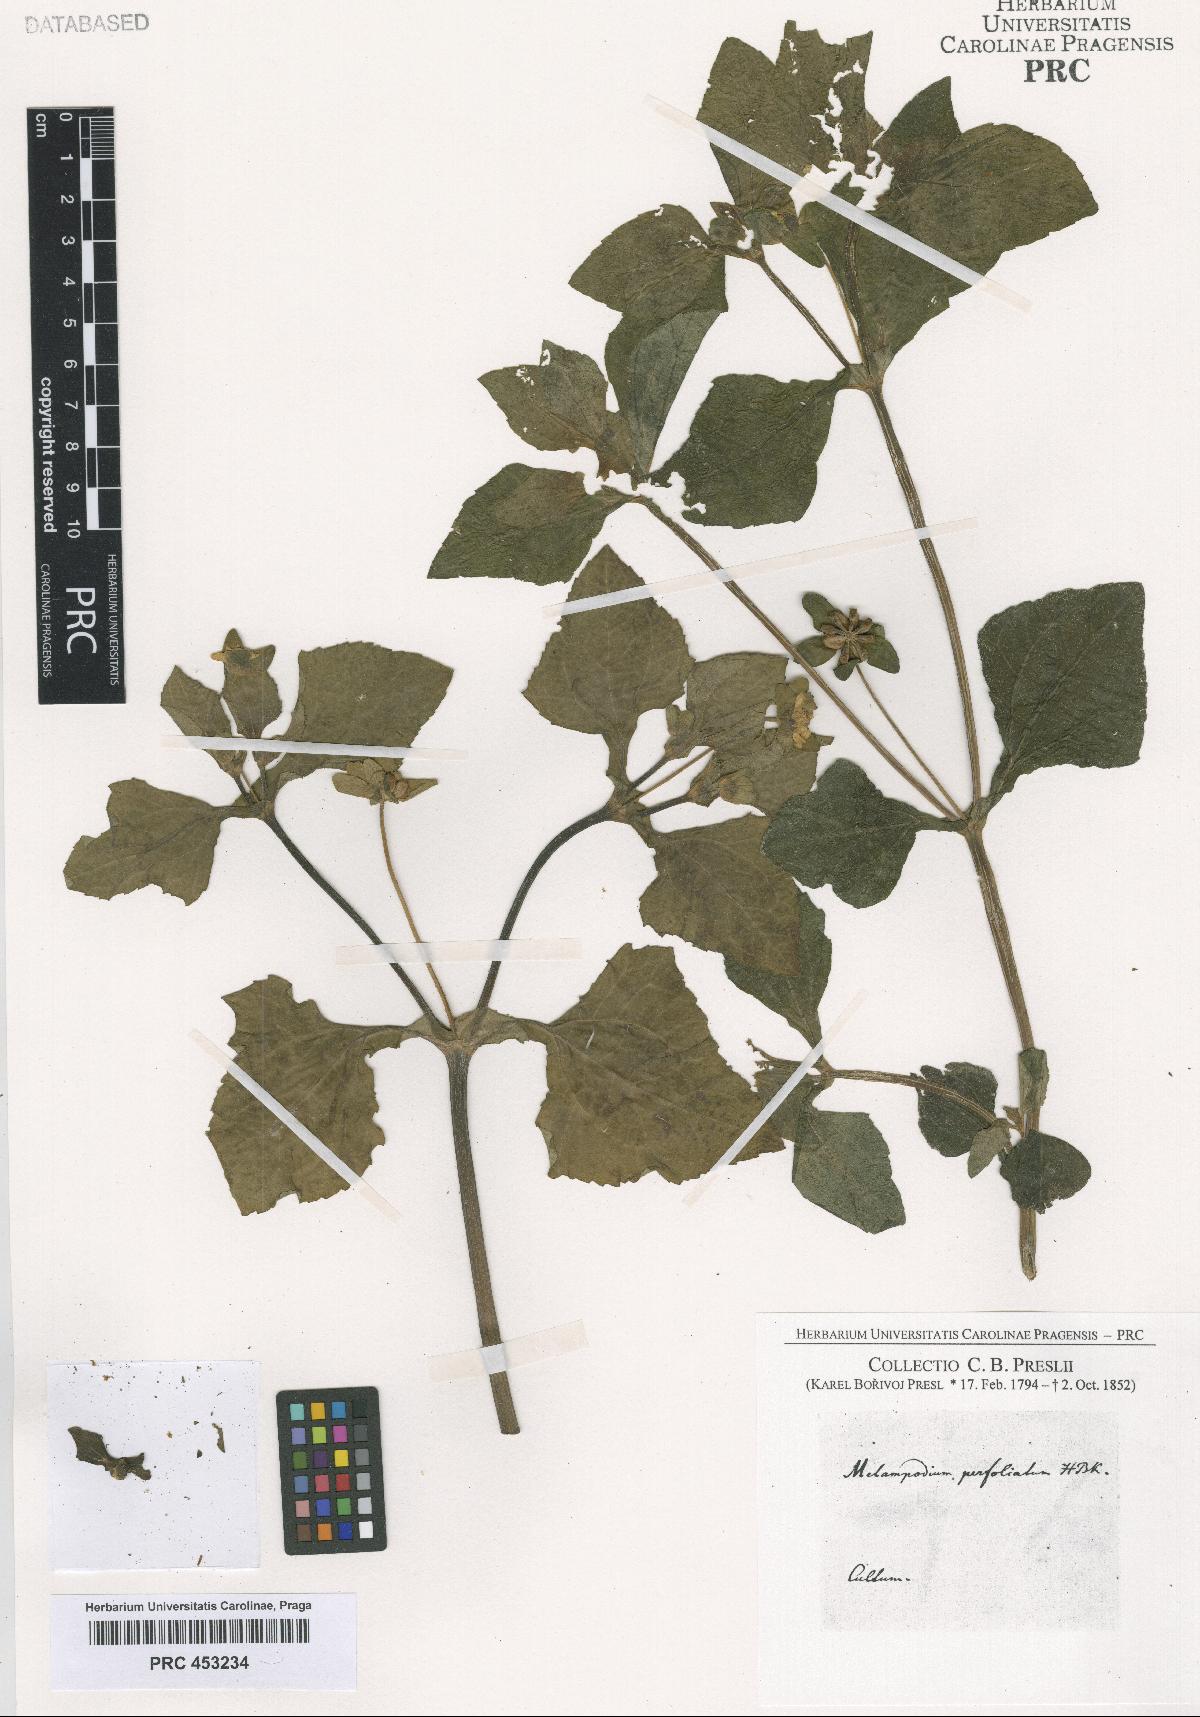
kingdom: Plantae
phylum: Tracheophyta
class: Magnoliopsida
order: Asterales
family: Asteraceae
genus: Melampodium
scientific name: Melampodium perfoliatum
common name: Perfoliate blackfoot
